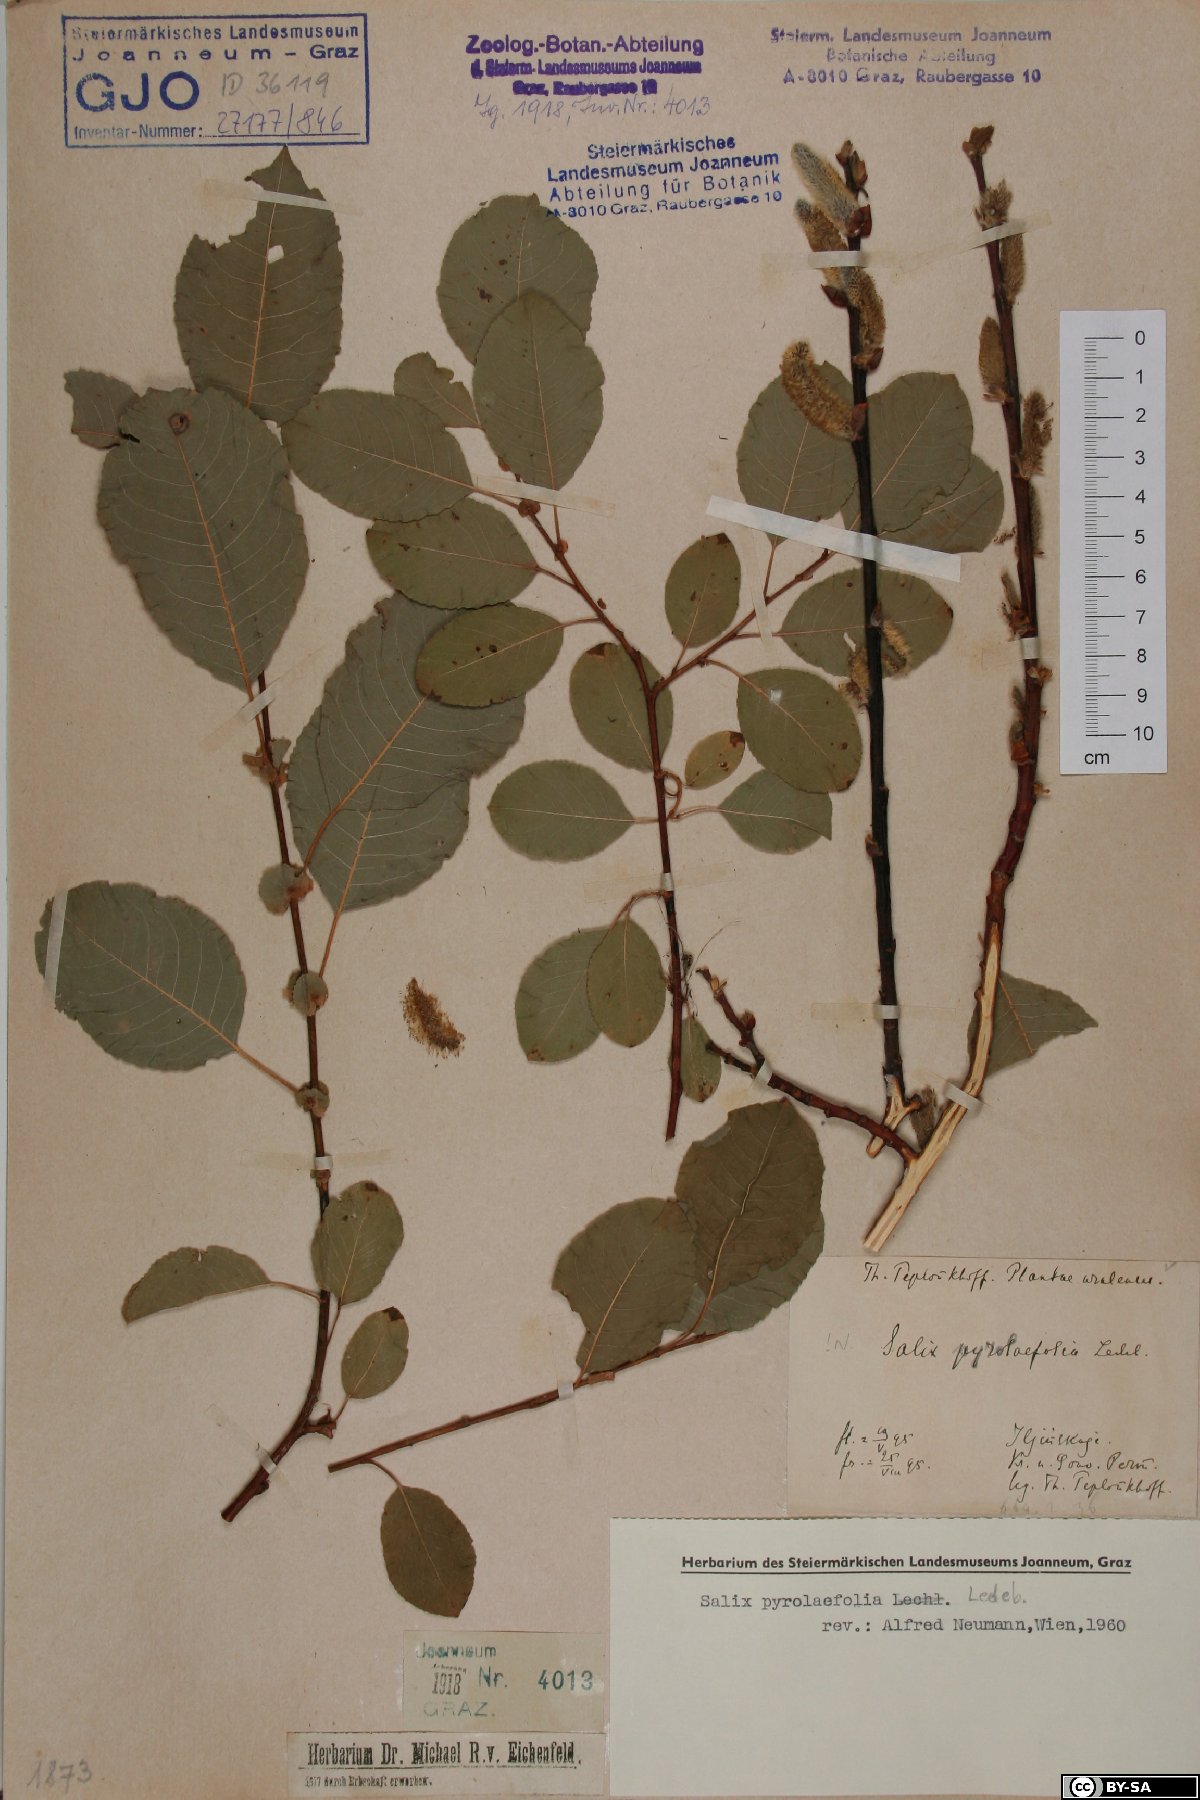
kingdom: Plantae
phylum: Tracheophyta
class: Magnoliopsida
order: Malpighiales
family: Salicaceae
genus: Salix
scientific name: Salix pyrolifolia
